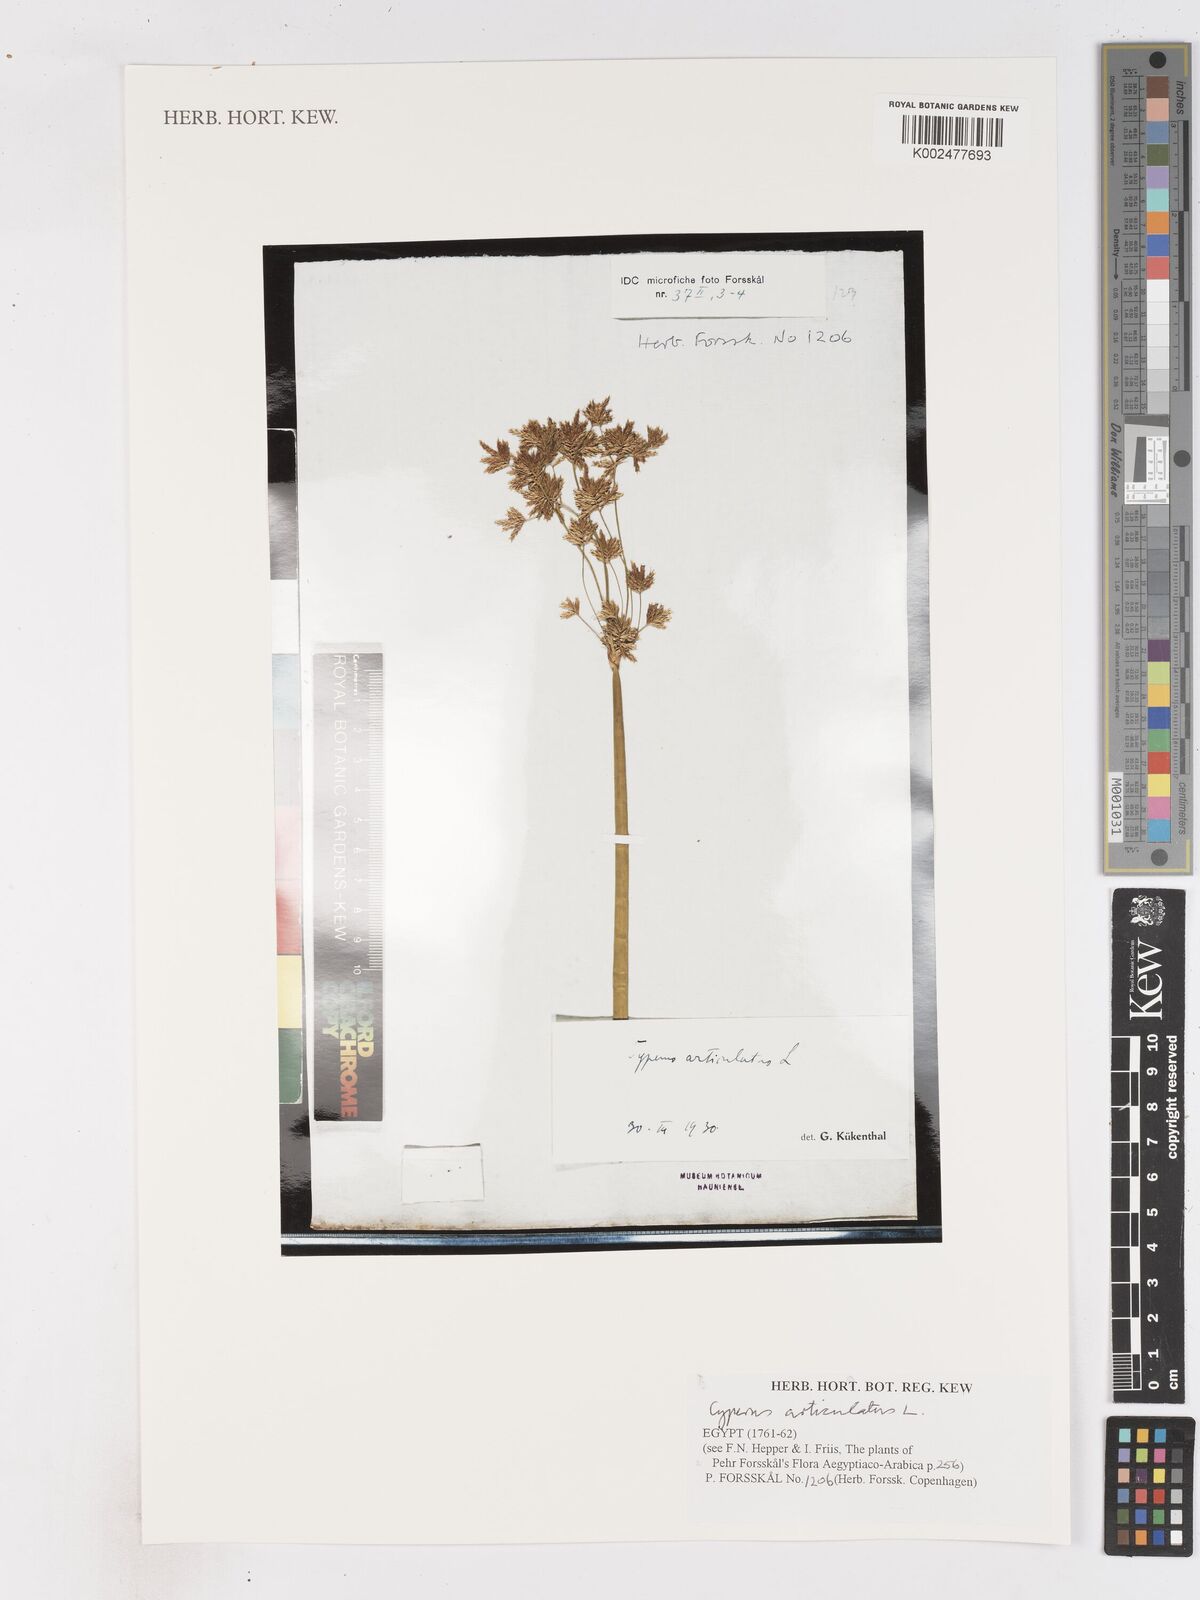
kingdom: Plantae
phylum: Tracheophyta
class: Liliopsida
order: Poales
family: Cyperaceae
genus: Cyperus
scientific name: Cyperus articulatus
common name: Jointed flatsedge
